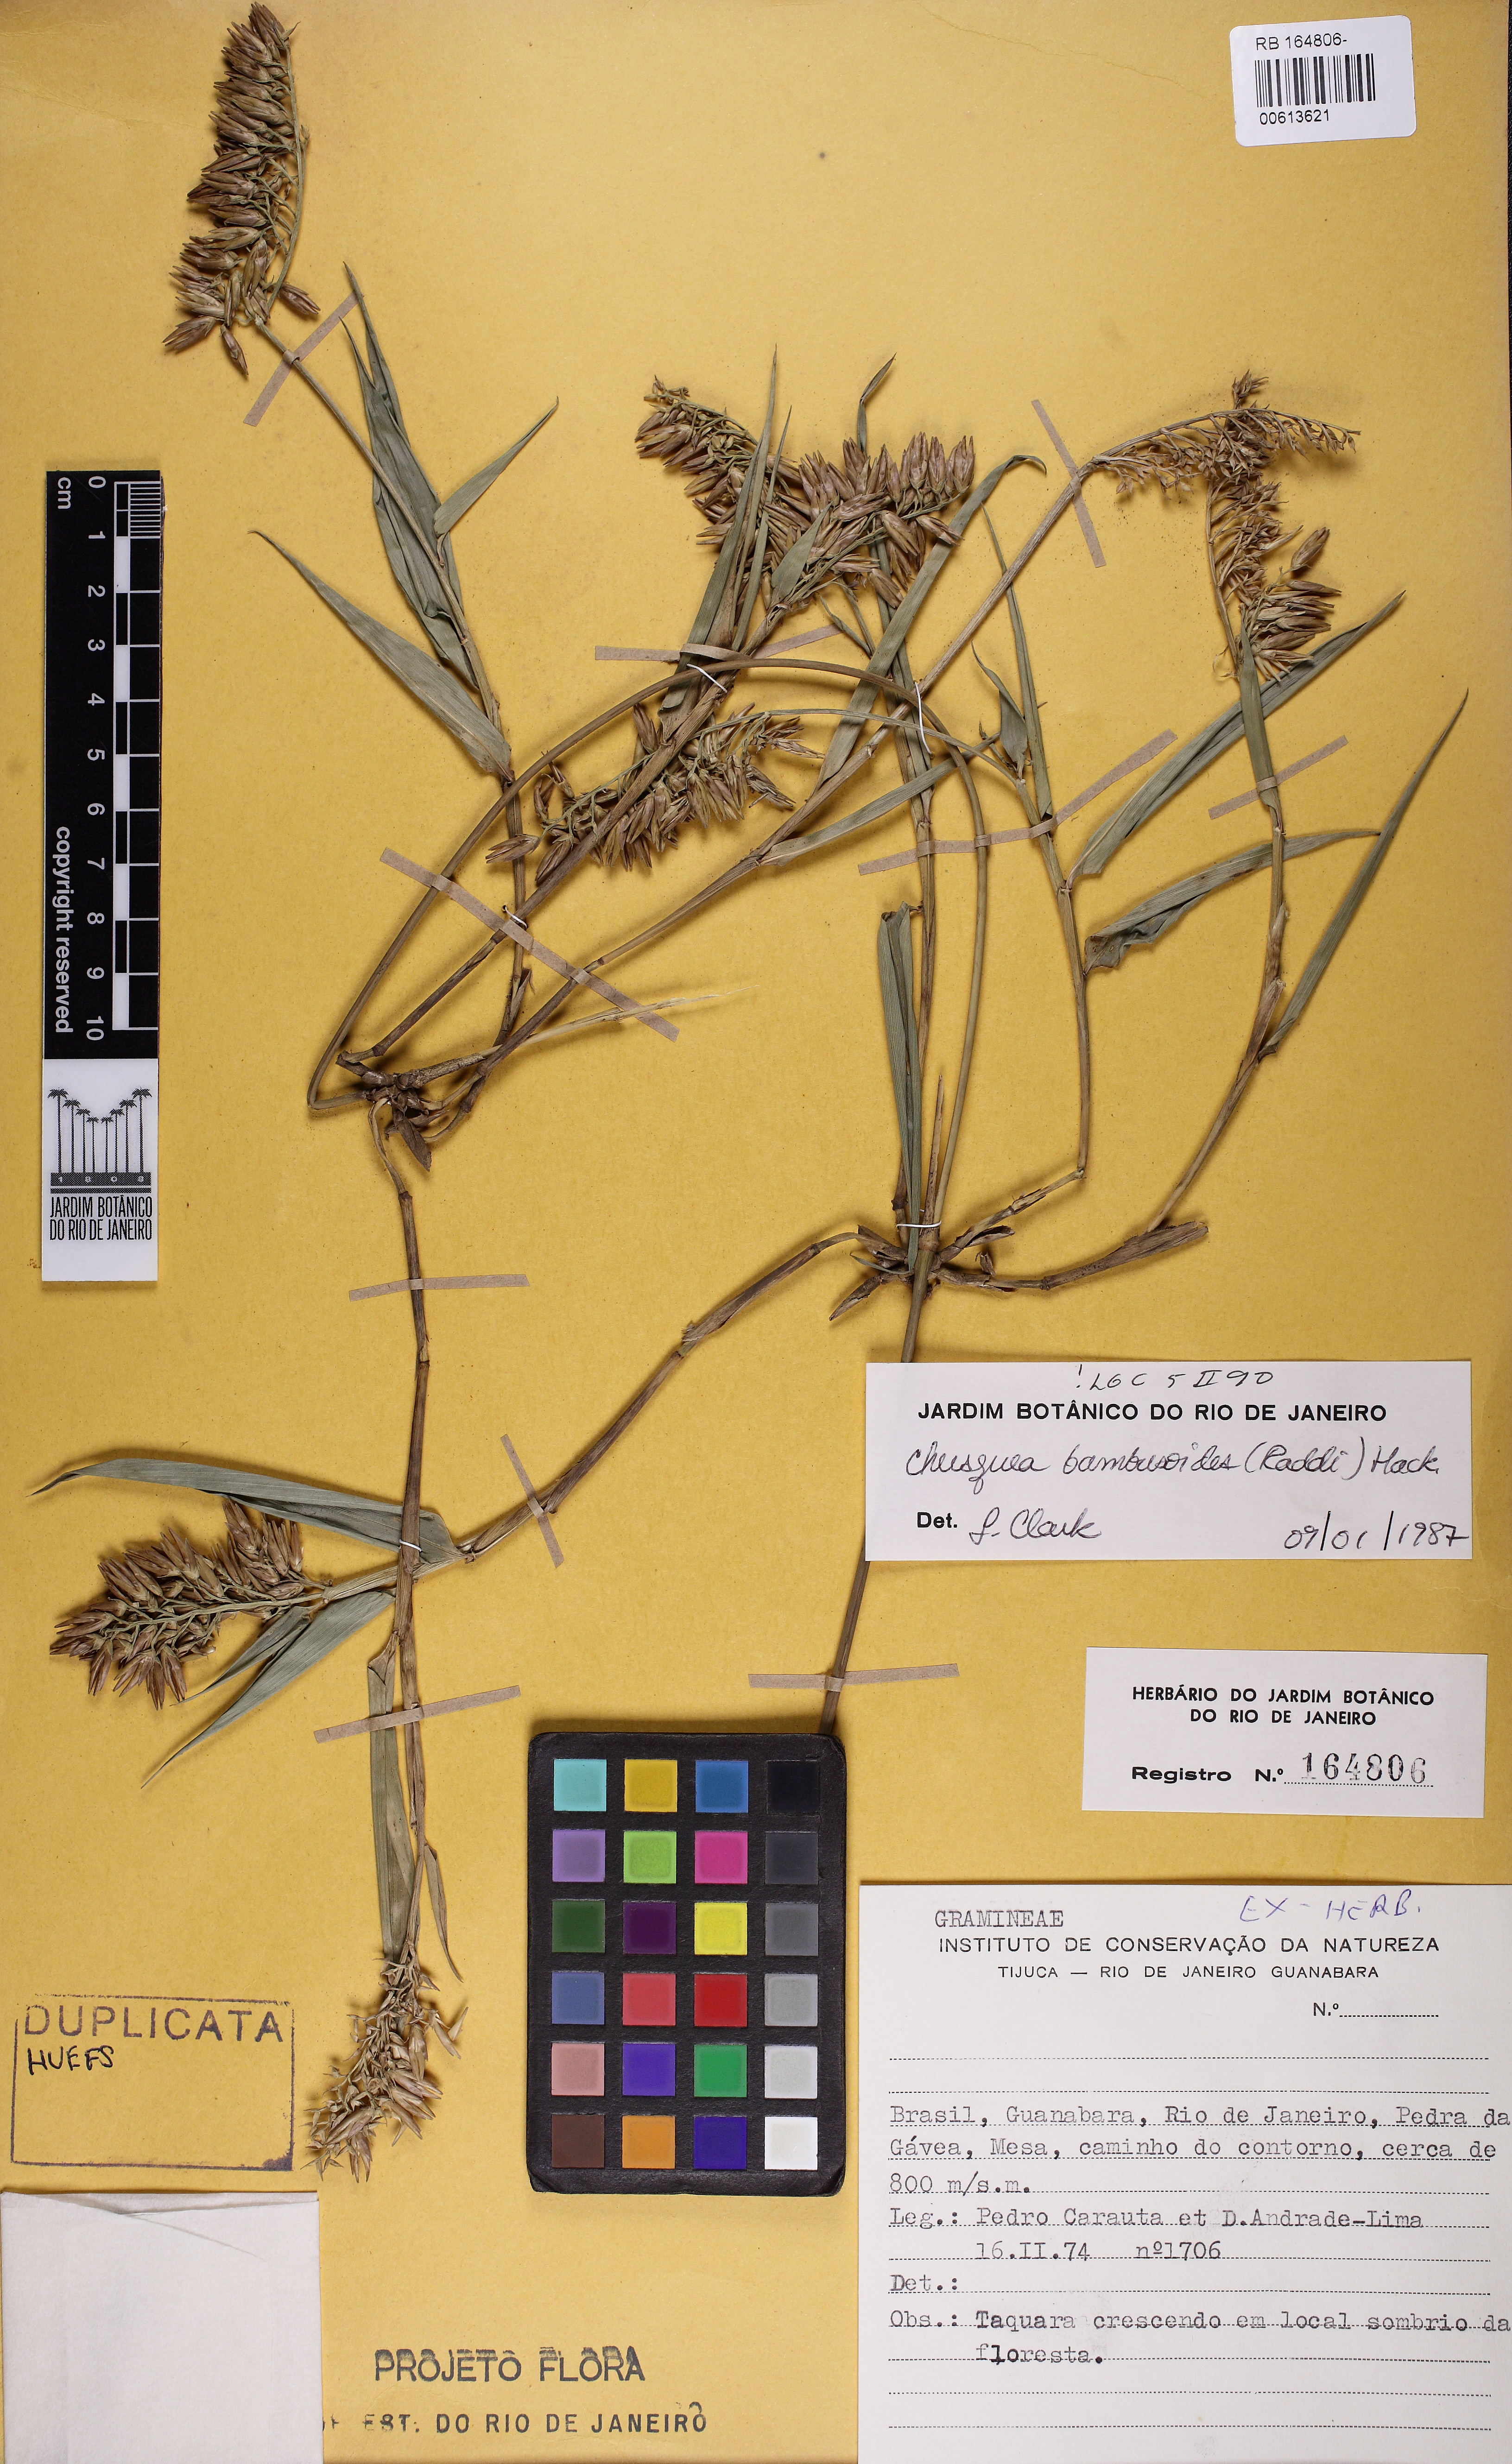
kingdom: Plantae
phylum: Tracheophyta
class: Liliopsida
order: Poales
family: Poaceae
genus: Chusquea
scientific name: Chusquea bambusoides
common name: Brazil scrambling bamboo
